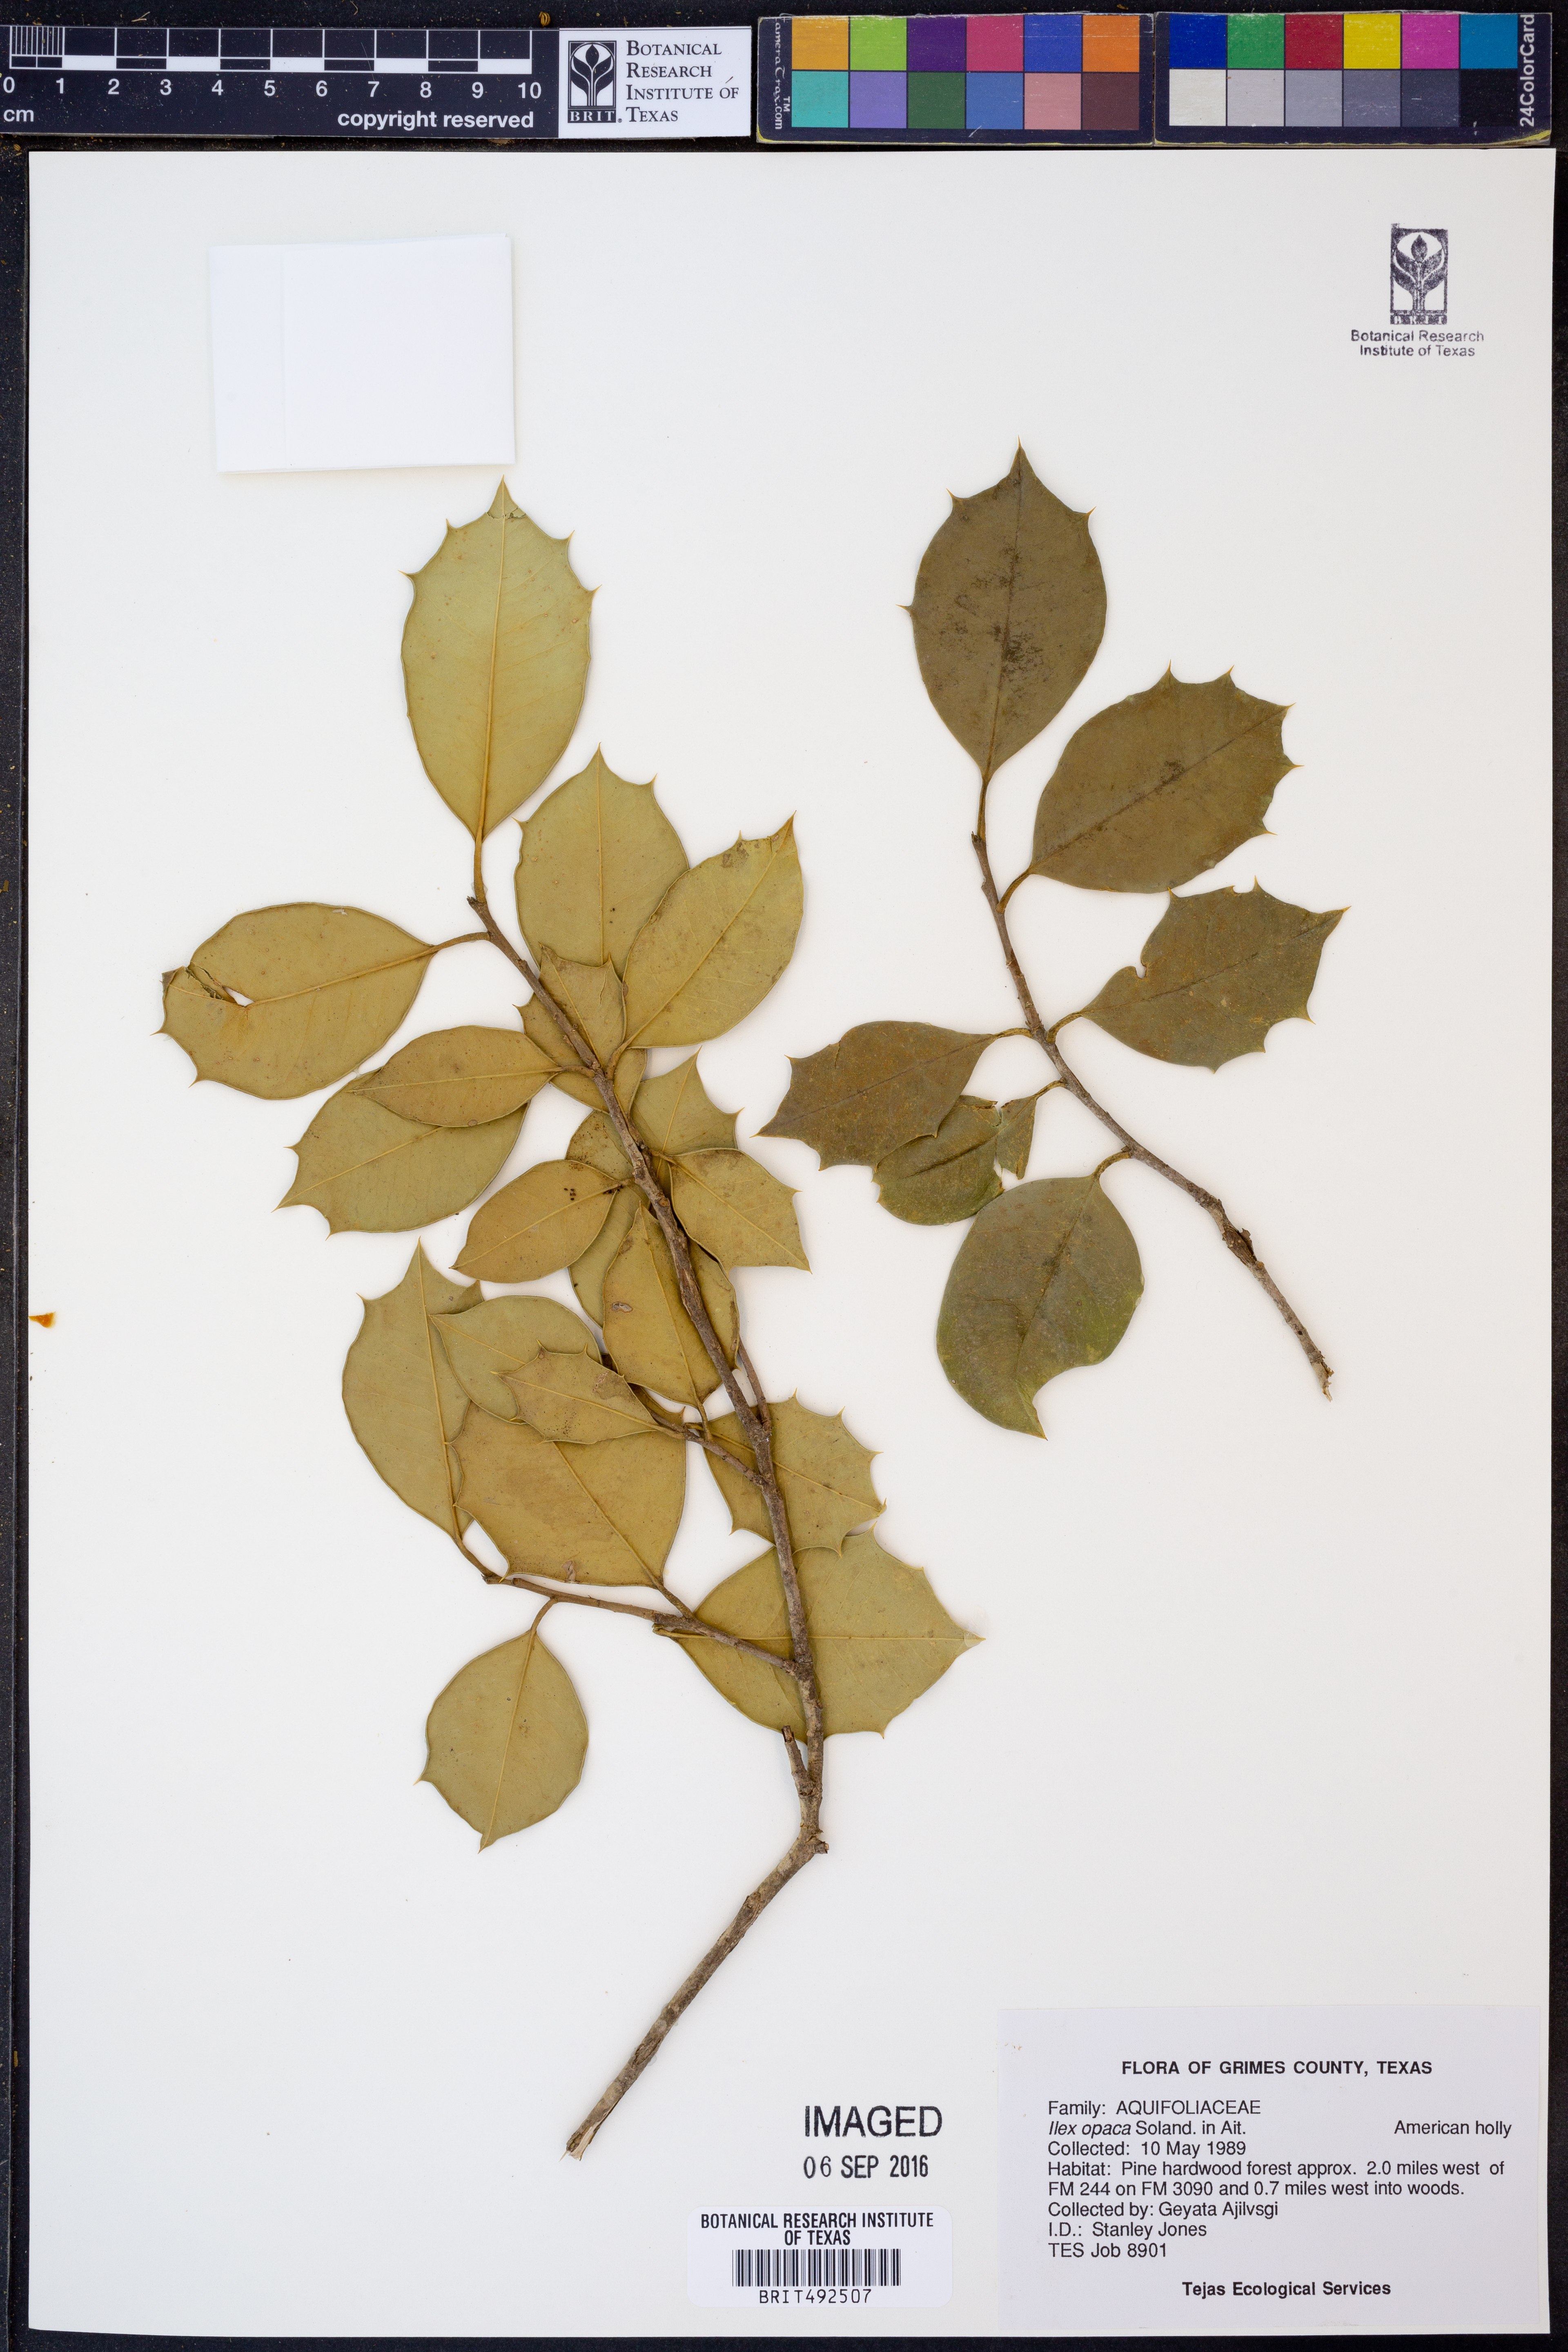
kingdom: Plantae
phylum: Tracheophyta
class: Magnoliopsida
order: Aquifoliales
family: Aquifoliaceae
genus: Ilex
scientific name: Ilex opaca
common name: American holly
